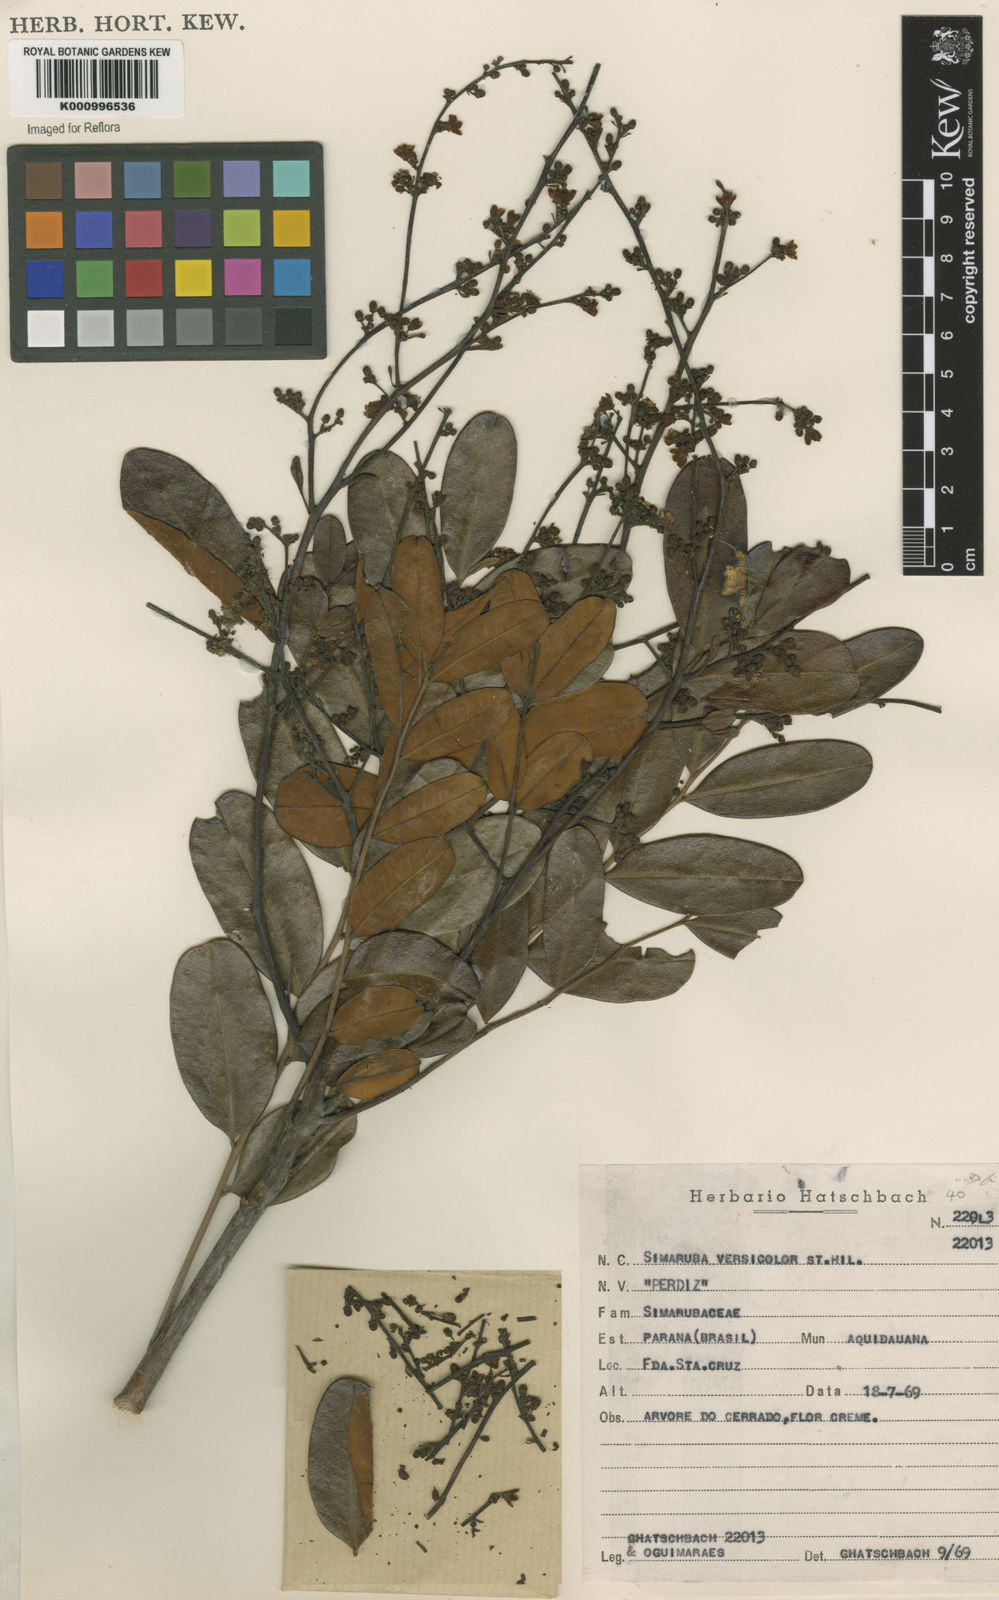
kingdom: Plantae
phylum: Tracheophyta
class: Magnoliopsida
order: Sapindales
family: Simaroubaceae
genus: Simarouba
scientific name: Simarouba versicolor
